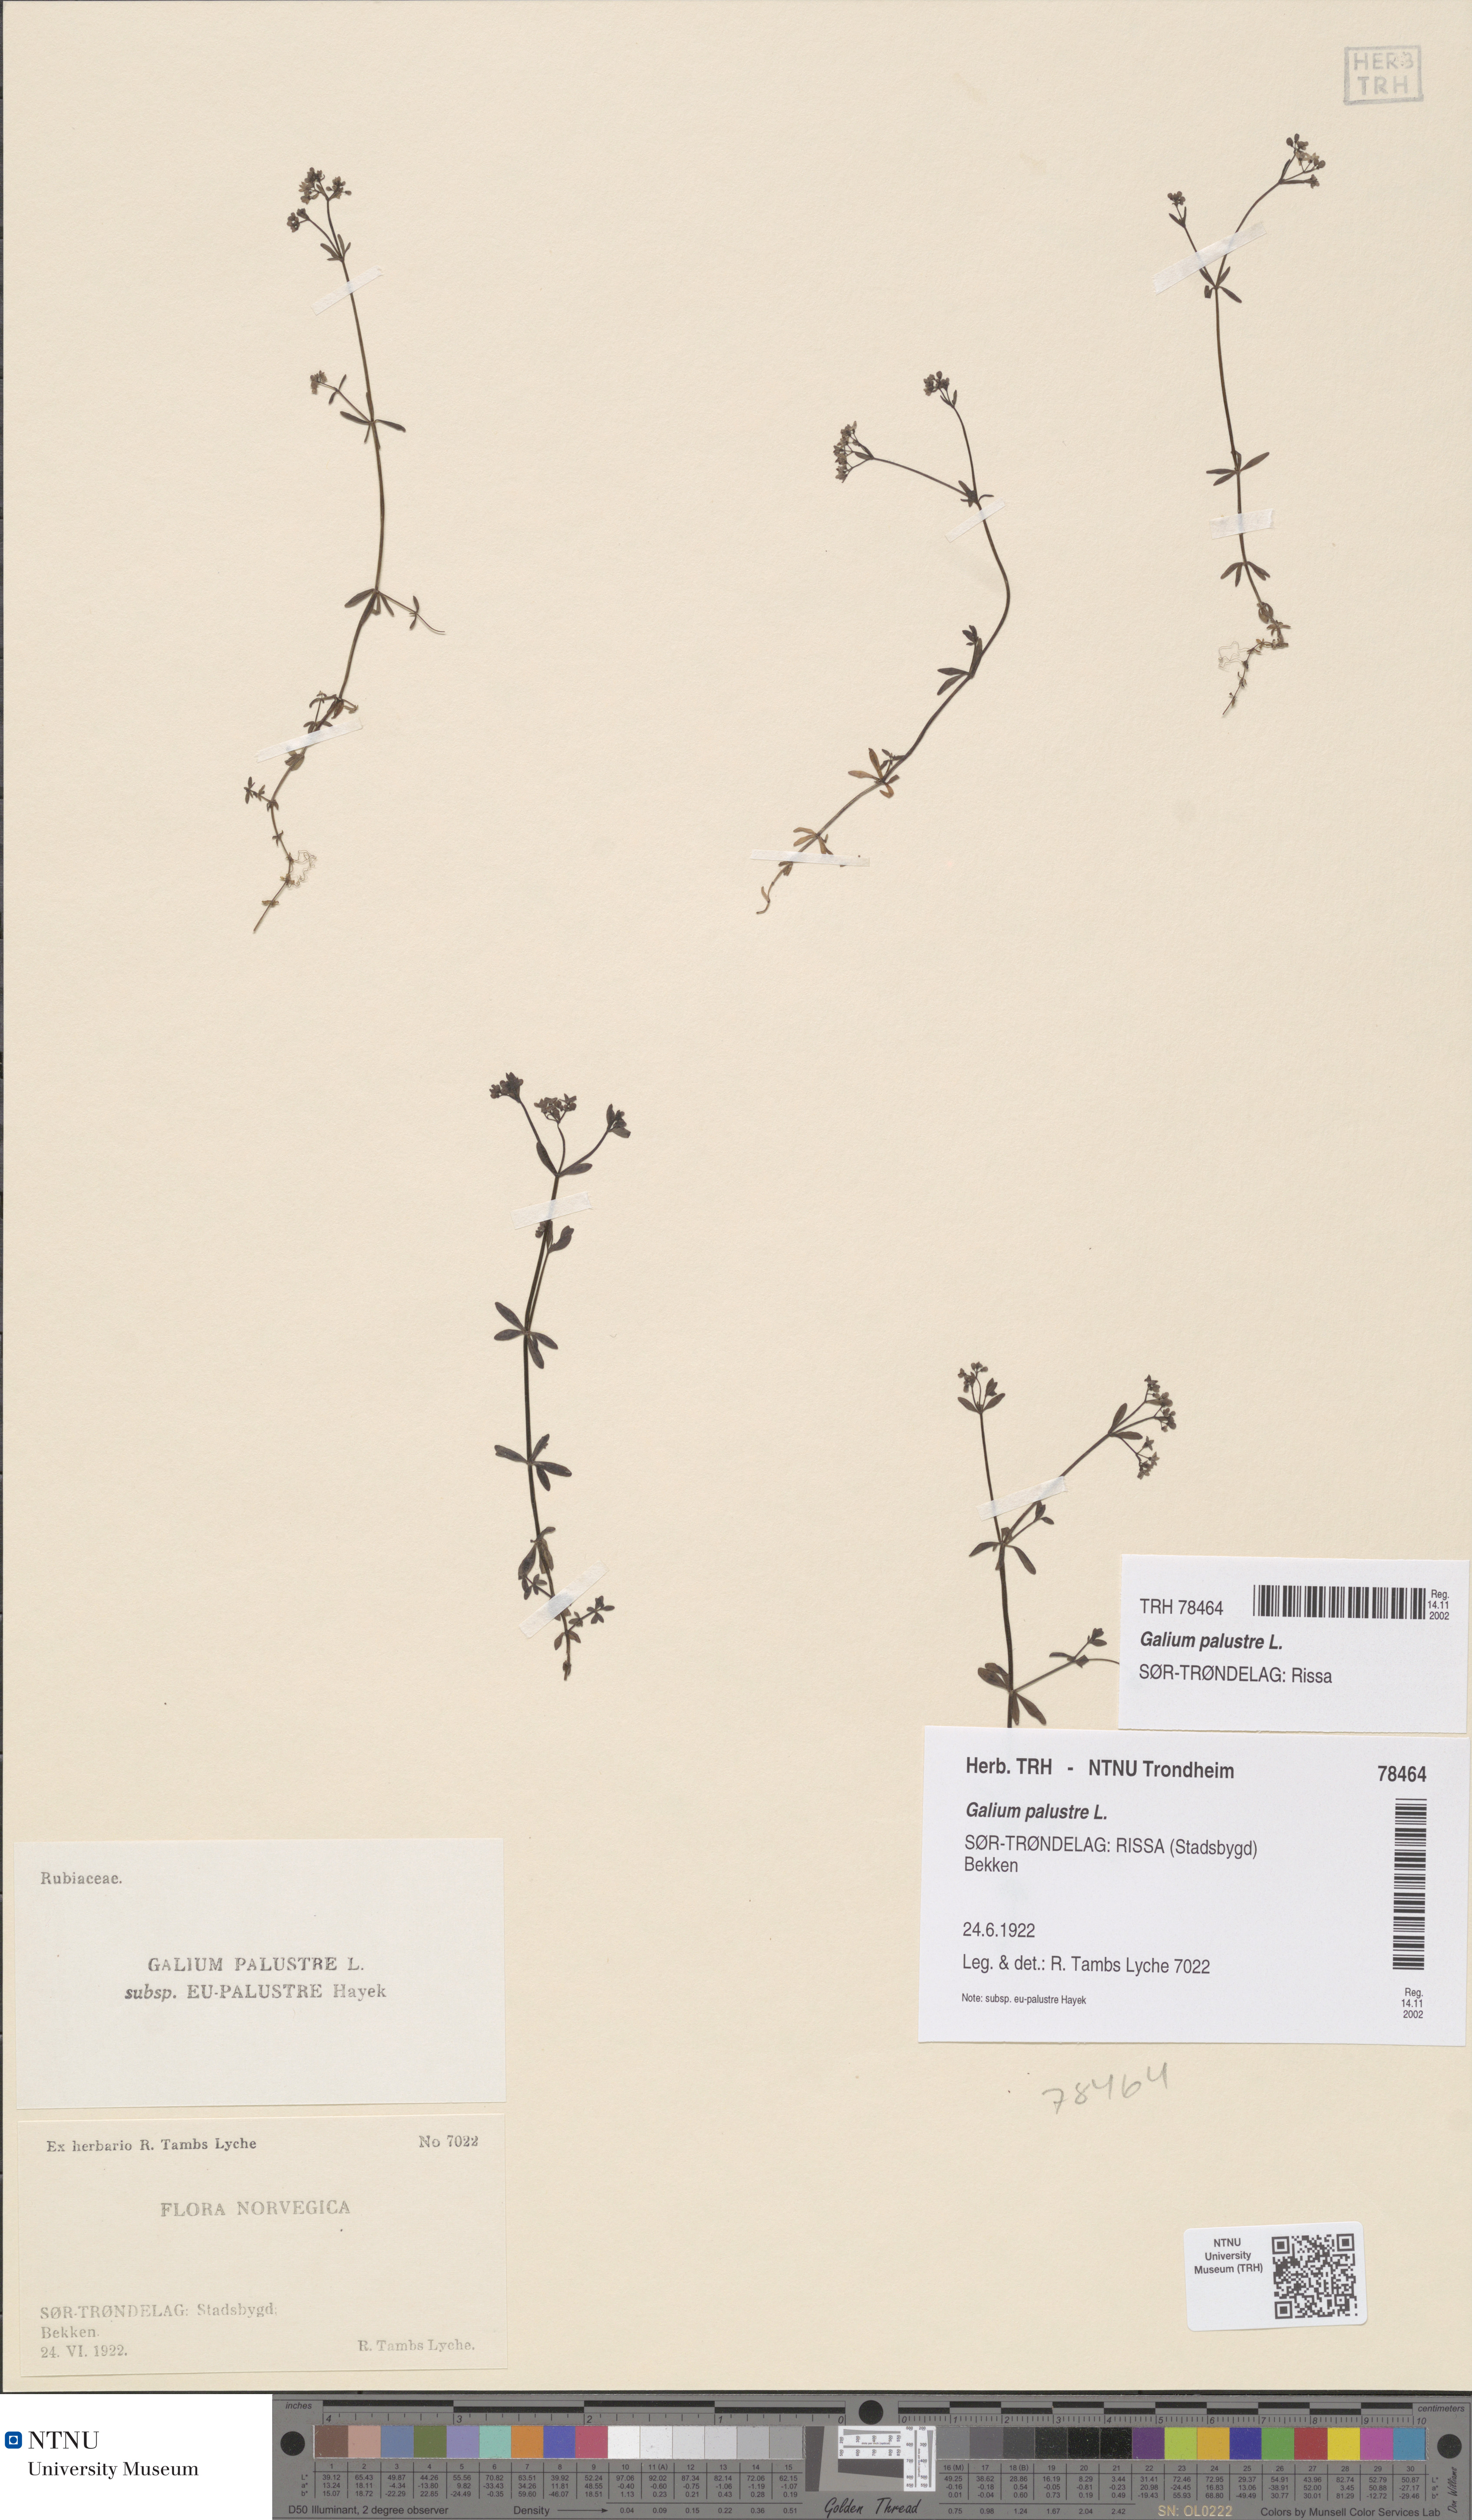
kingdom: Plantae
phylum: Tracheophyta
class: Magnoliopsida
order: Gentianales
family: Rubiaceae
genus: Galium
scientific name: Galium palustre
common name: Common marsh-bedstraw
